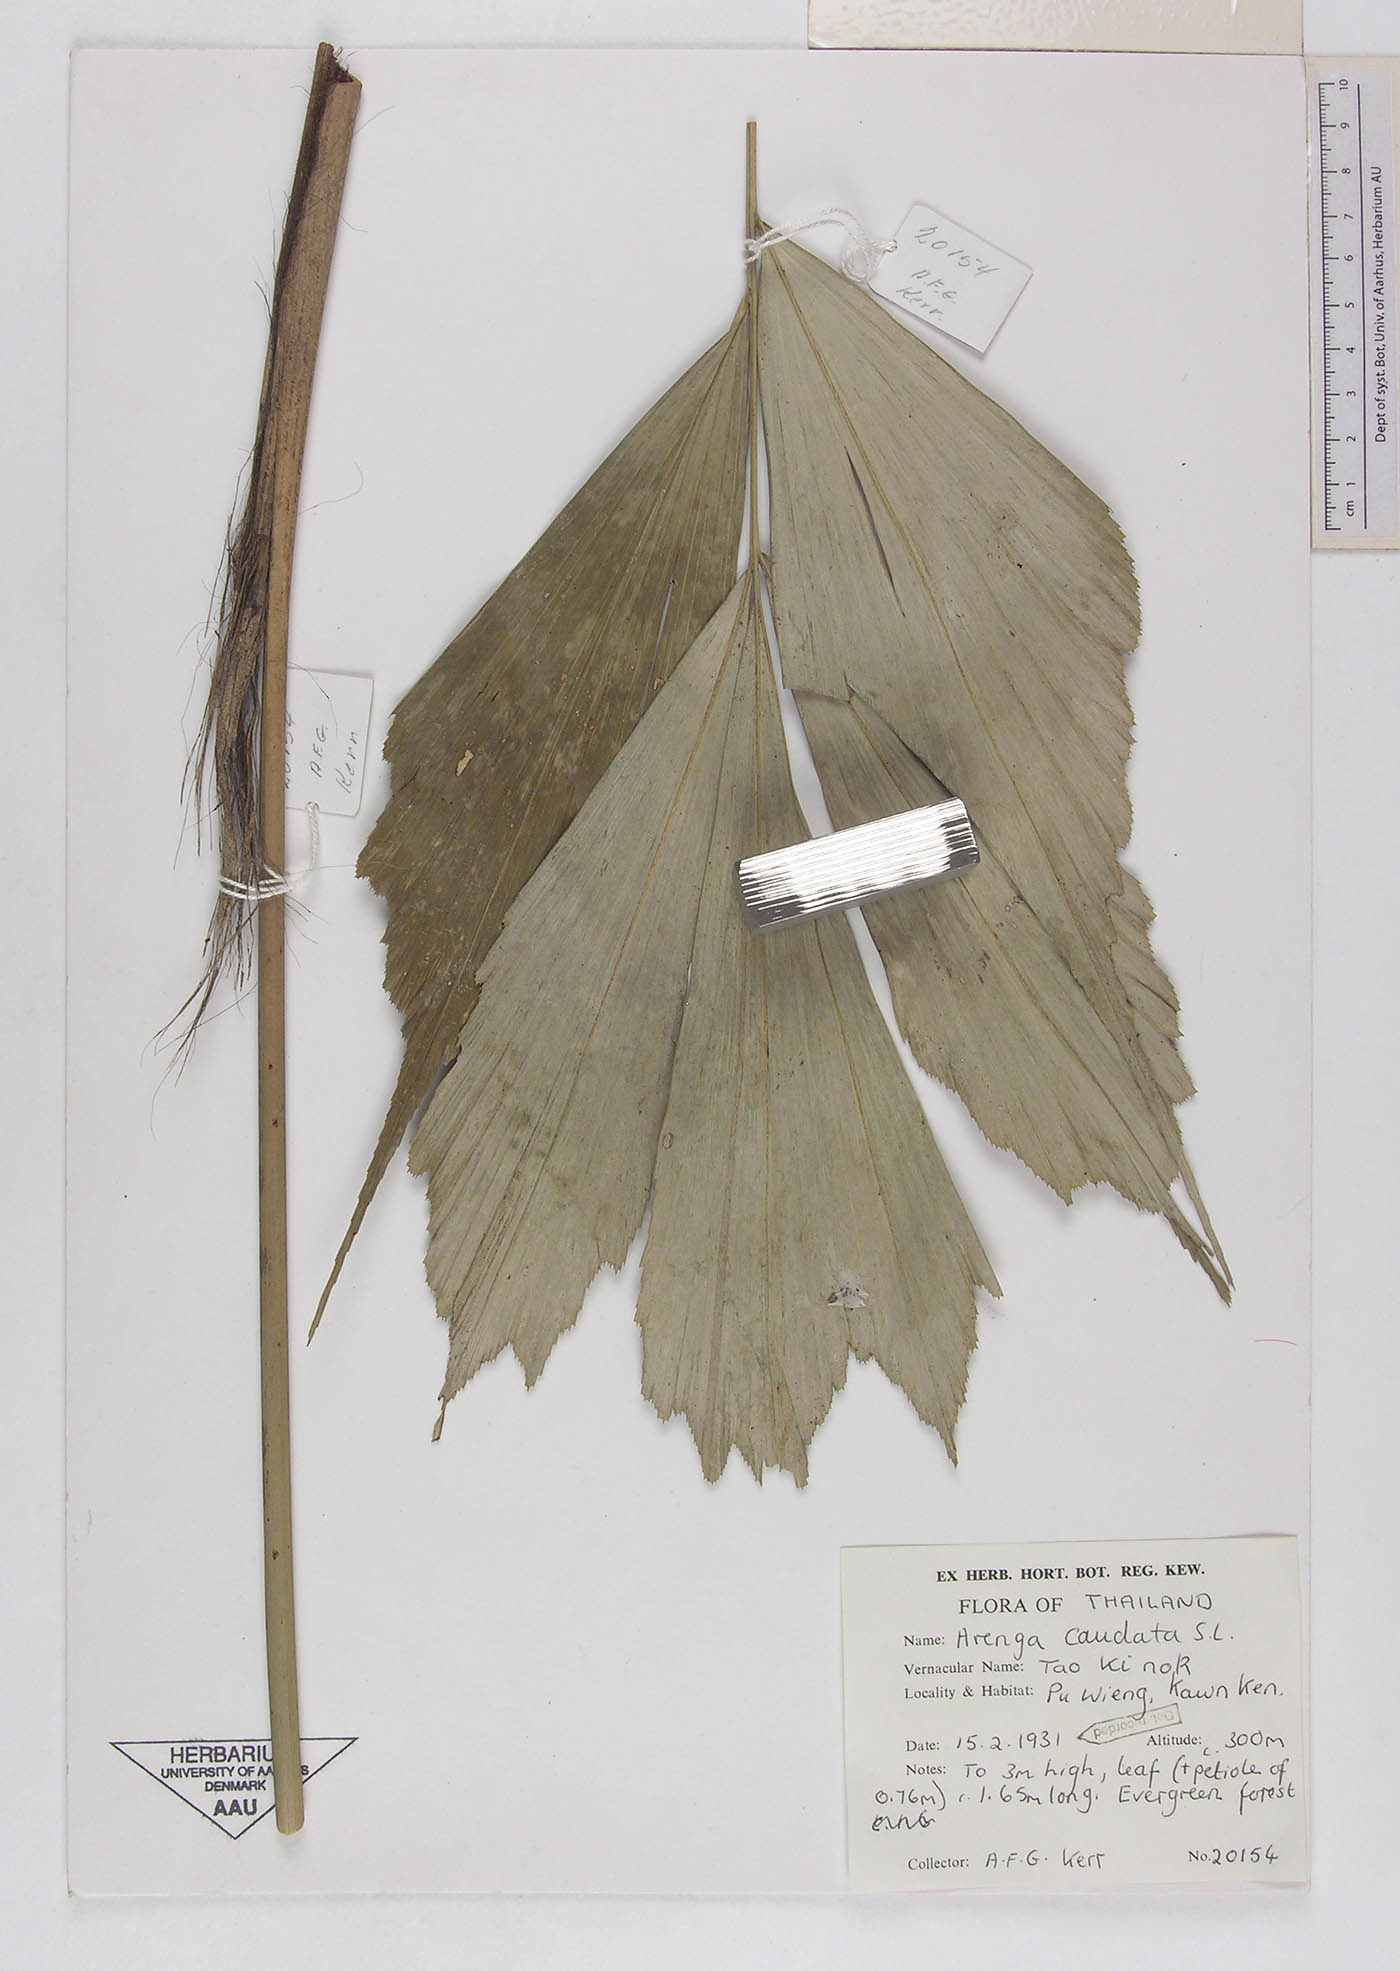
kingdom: Plantae
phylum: Tracheophyta
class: Liliopsida
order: Arecales
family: Arecaceae
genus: Arenga
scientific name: Arenga caudata
